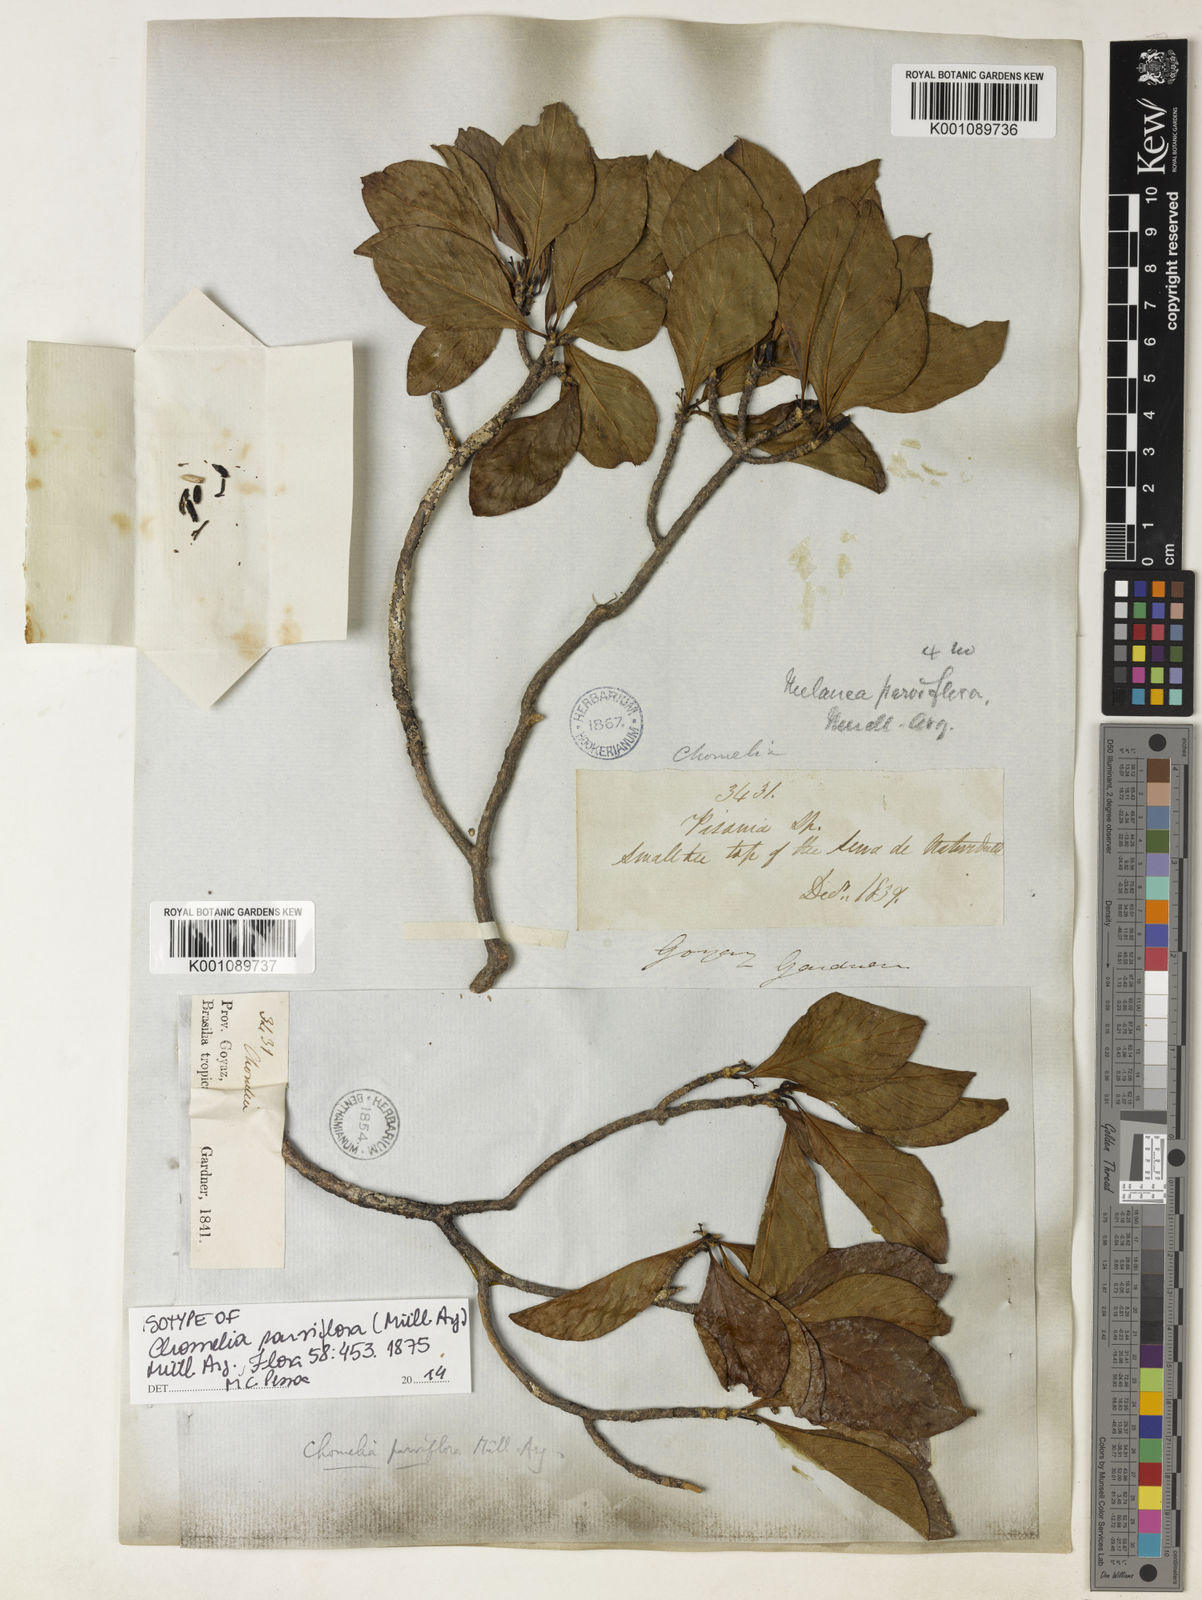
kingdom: Plantae
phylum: Tracheophyta
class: Magnoliopsida
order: Gentianales
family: Rubiaceae
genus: Chomelia
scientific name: Chomelia
